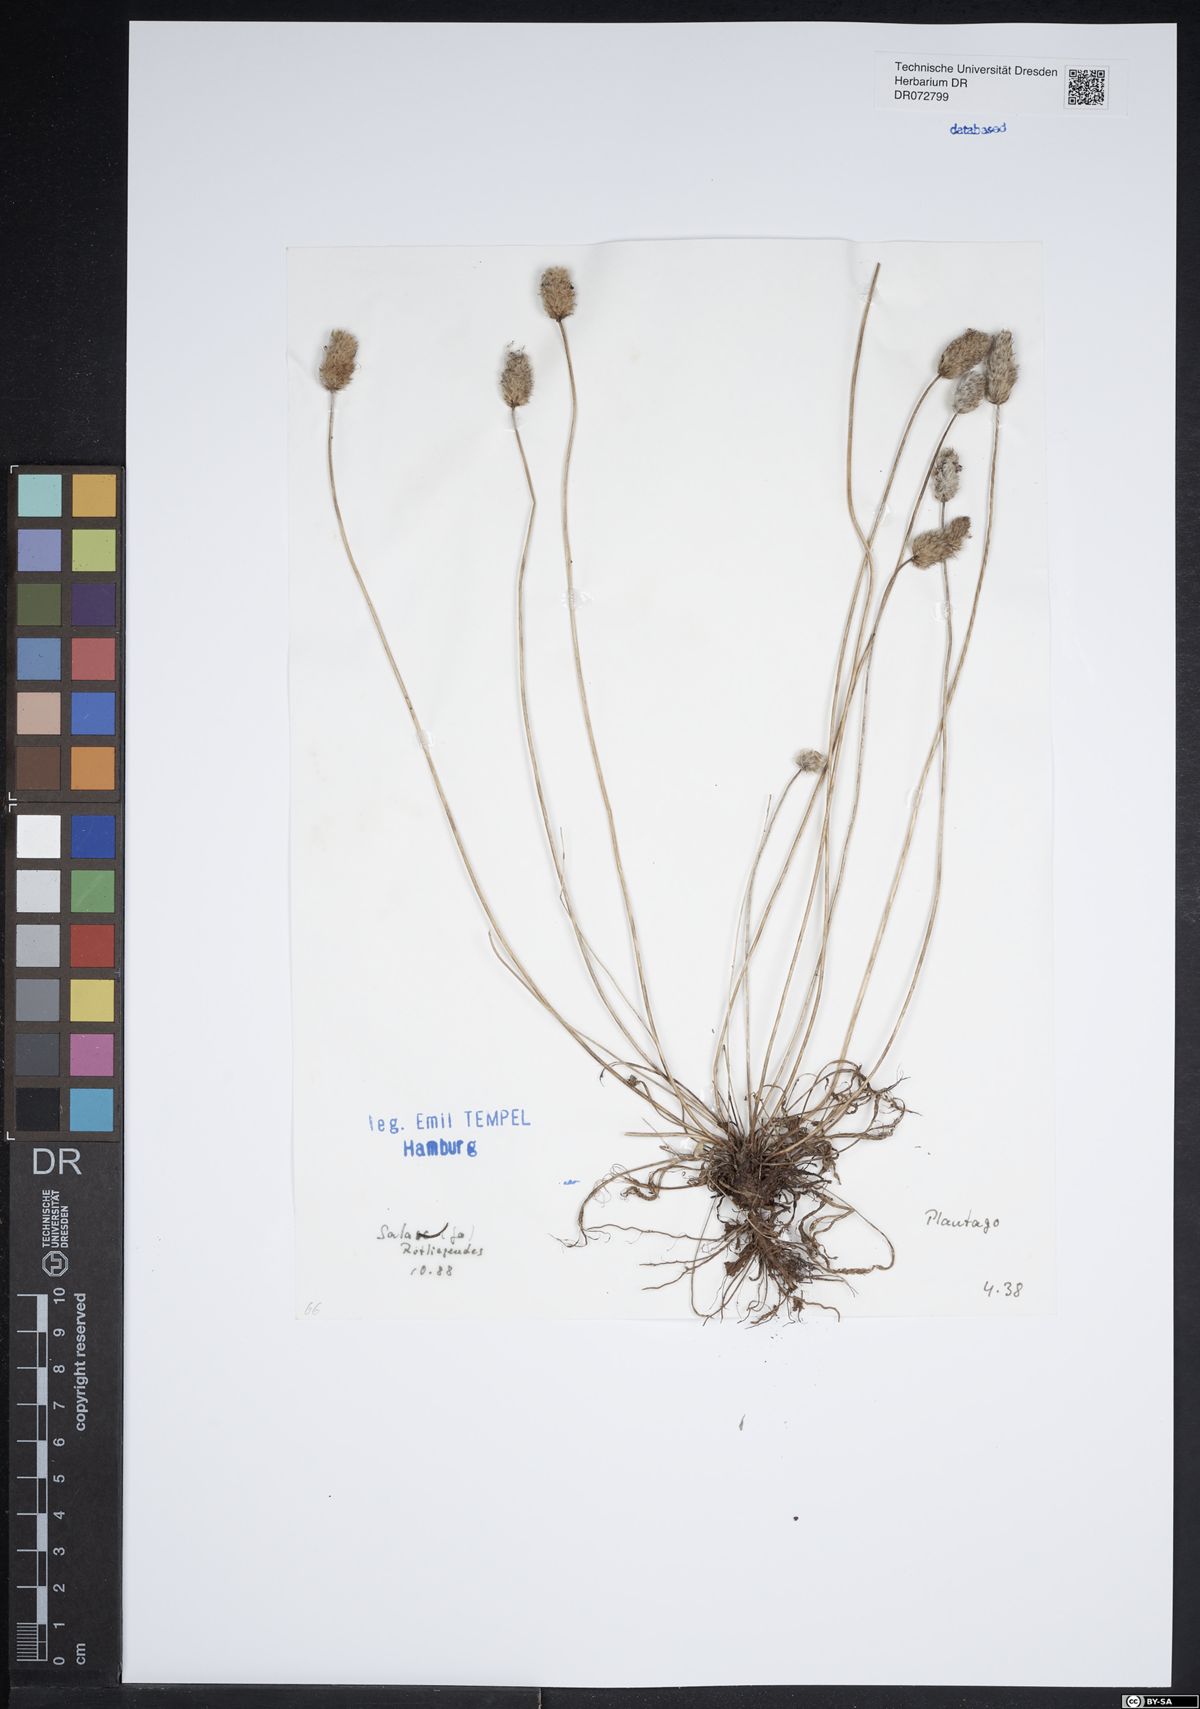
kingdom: Plantae
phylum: Tracheophyta
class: Magnoliopsida
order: Lamiales
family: Plantaginaceae
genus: Plantago
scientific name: Plantago
